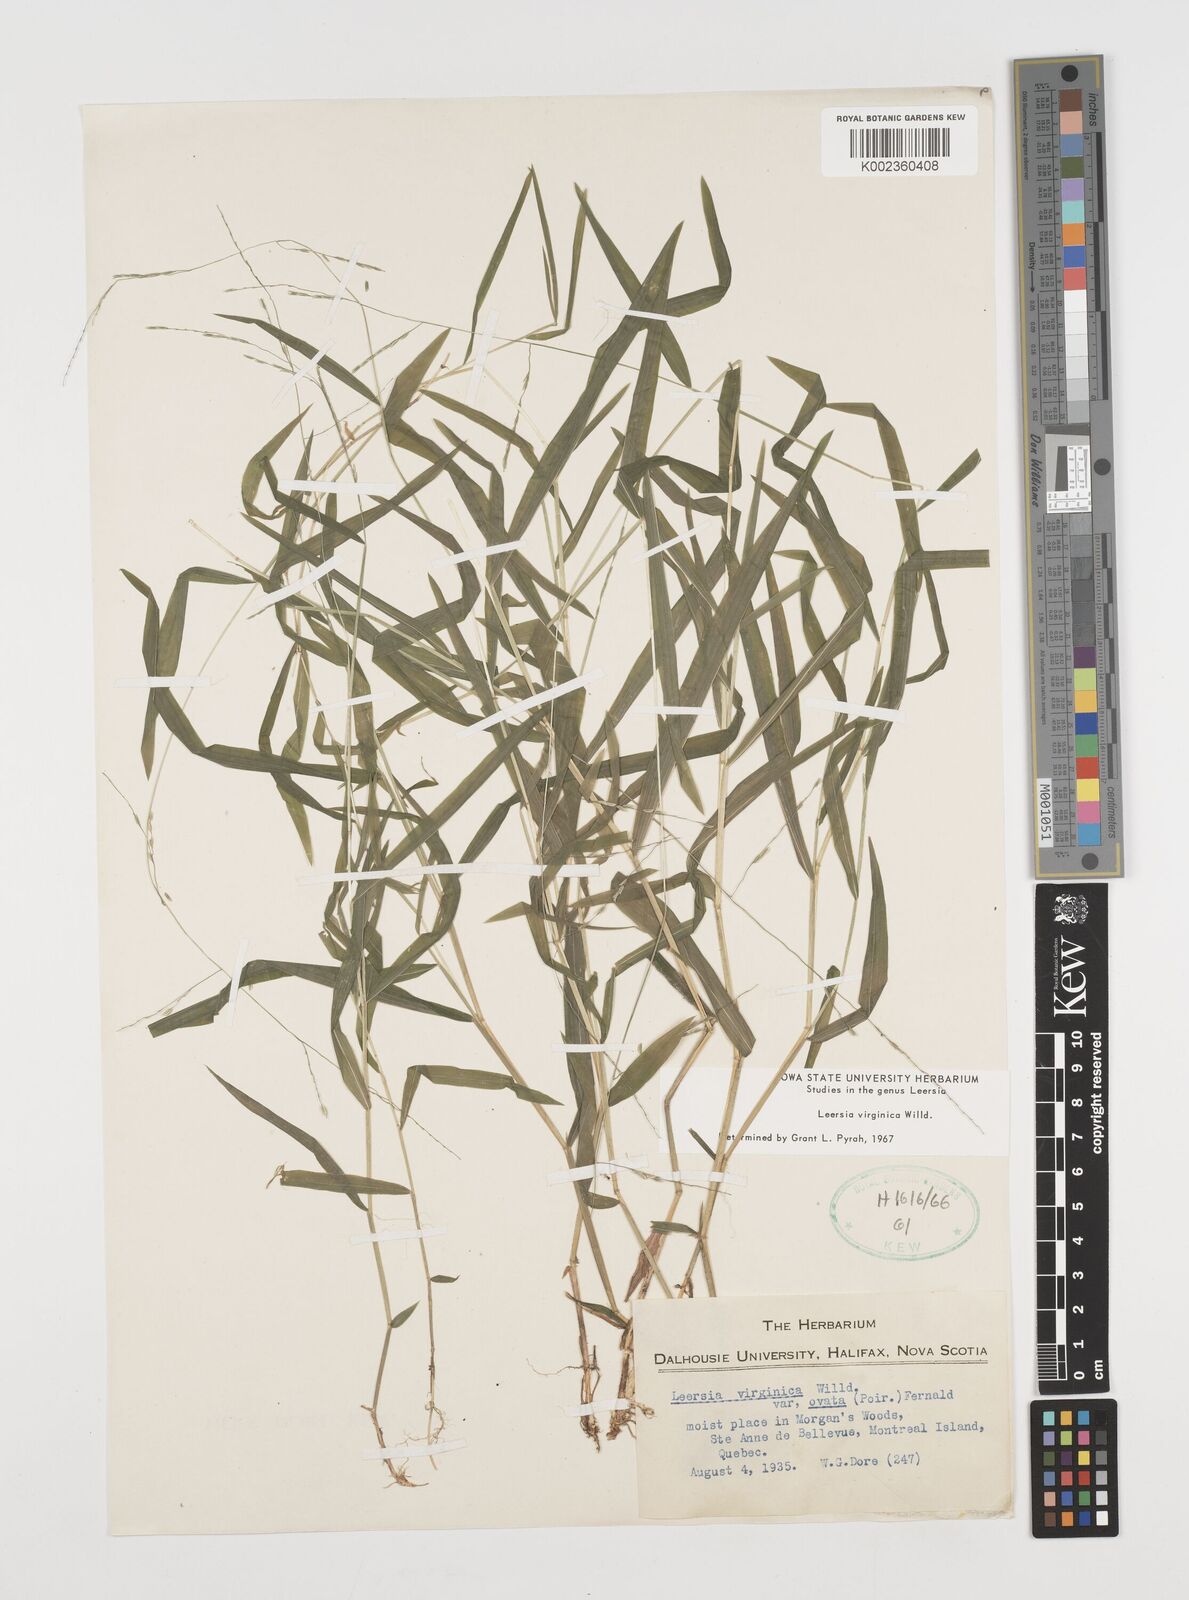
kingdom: Plantae
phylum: Tracheophyta
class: Liliopsida
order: Poales
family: Poaceae
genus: Leersia
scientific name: Leersia virginica
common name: White cutgrass
